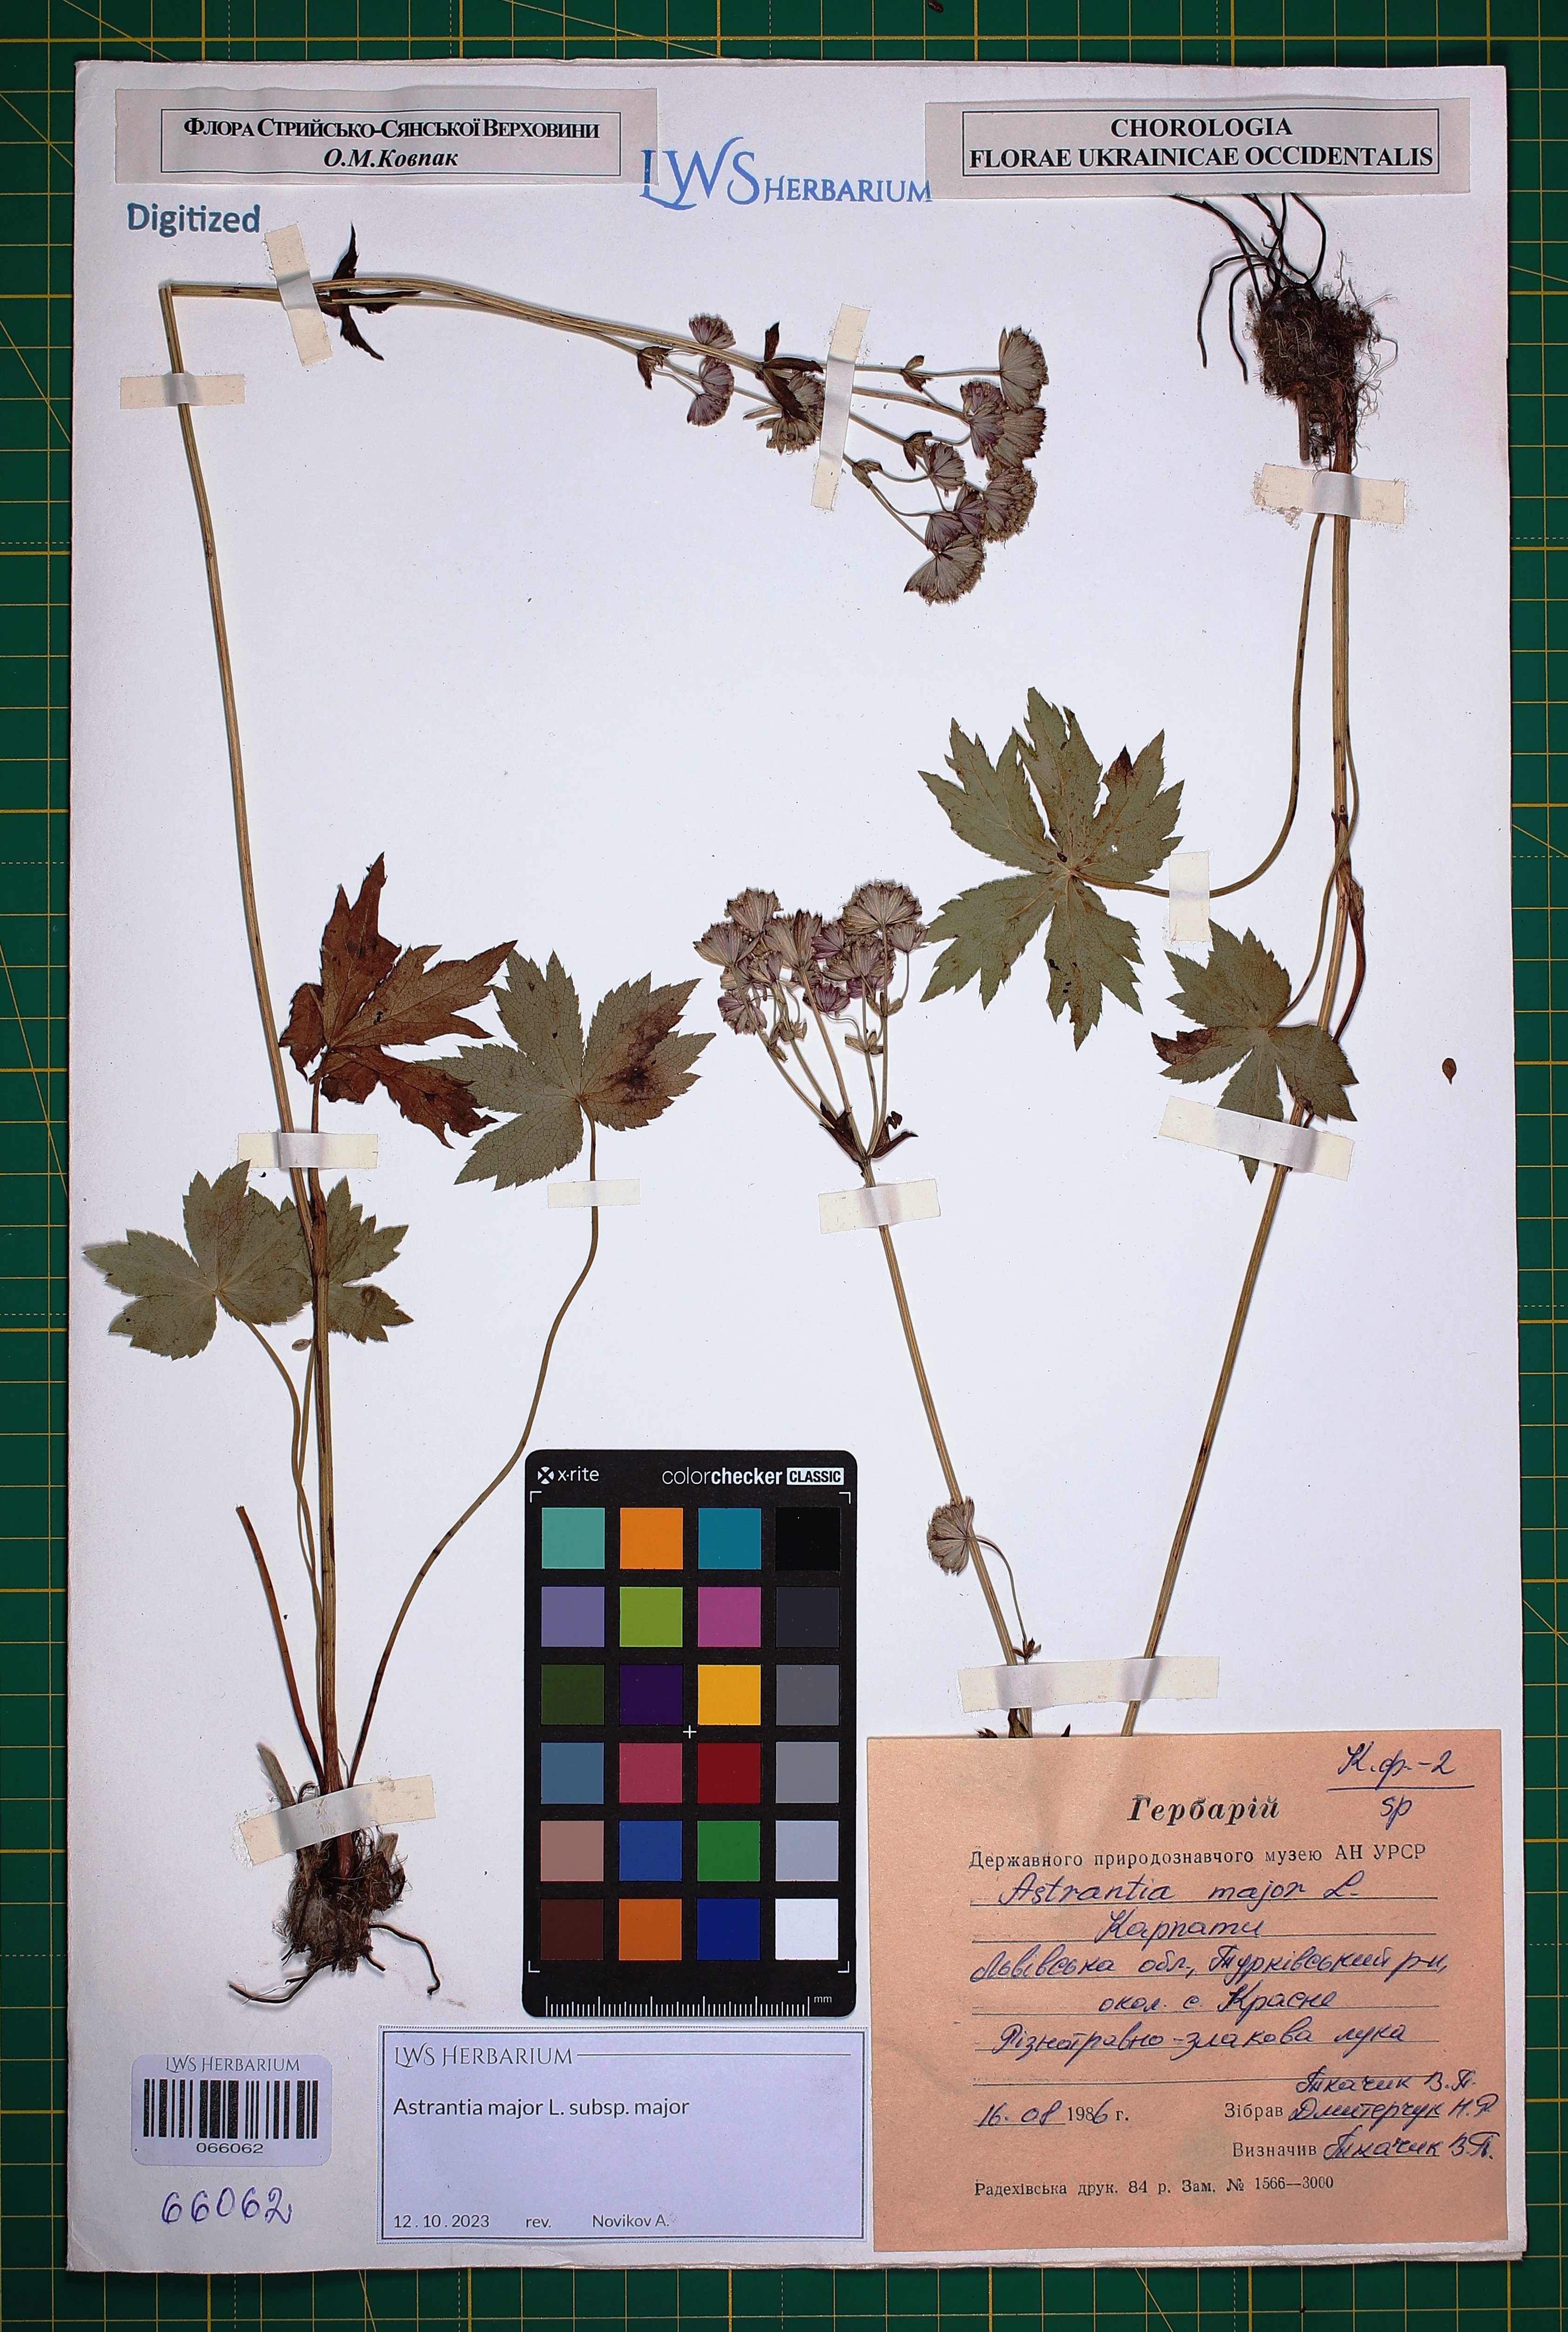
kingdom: Plantae
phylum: Tracheophyta
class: Magnoliopsida
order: Apiales
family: Apiaceae
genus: Astrantia
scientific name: Astrantia major
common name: Greater masterwort
